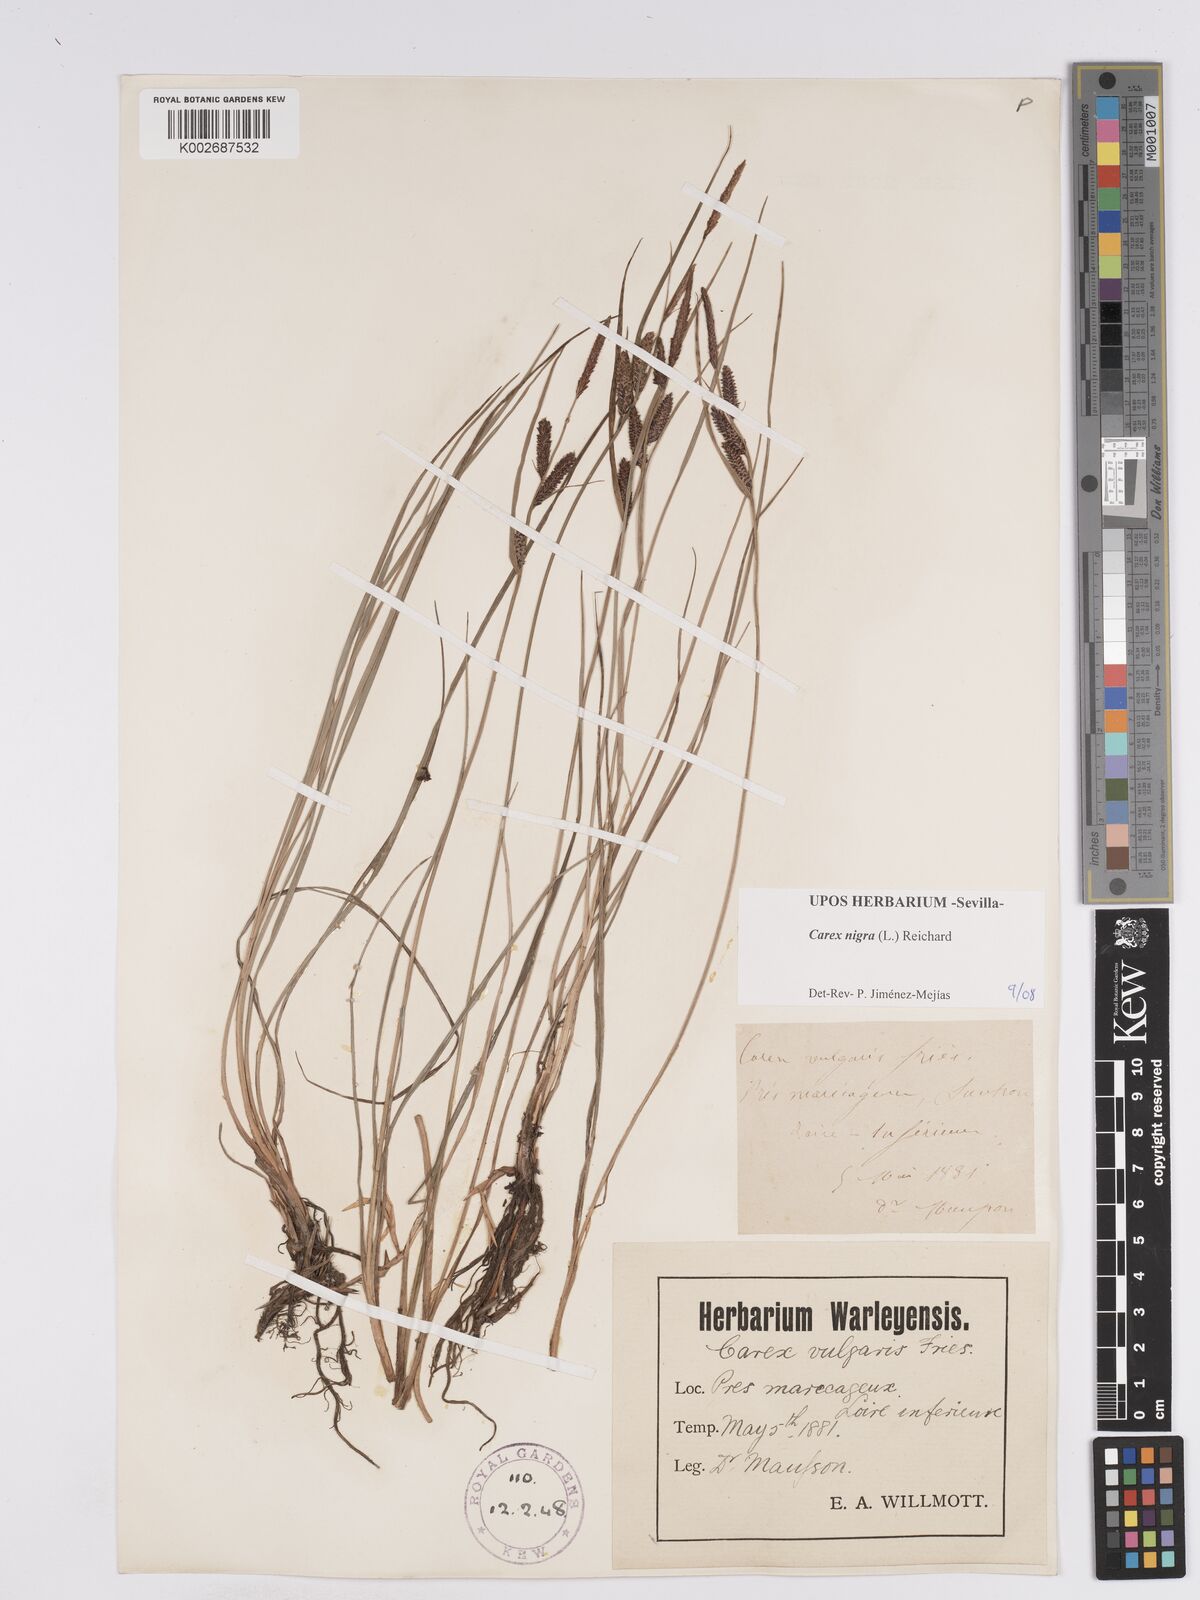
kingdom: Plantae
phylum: Tracheophyta
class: Liliopsida
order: Poales
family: Cyperaceae
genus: Carex
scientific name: Carex nigra
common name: Common sedge
